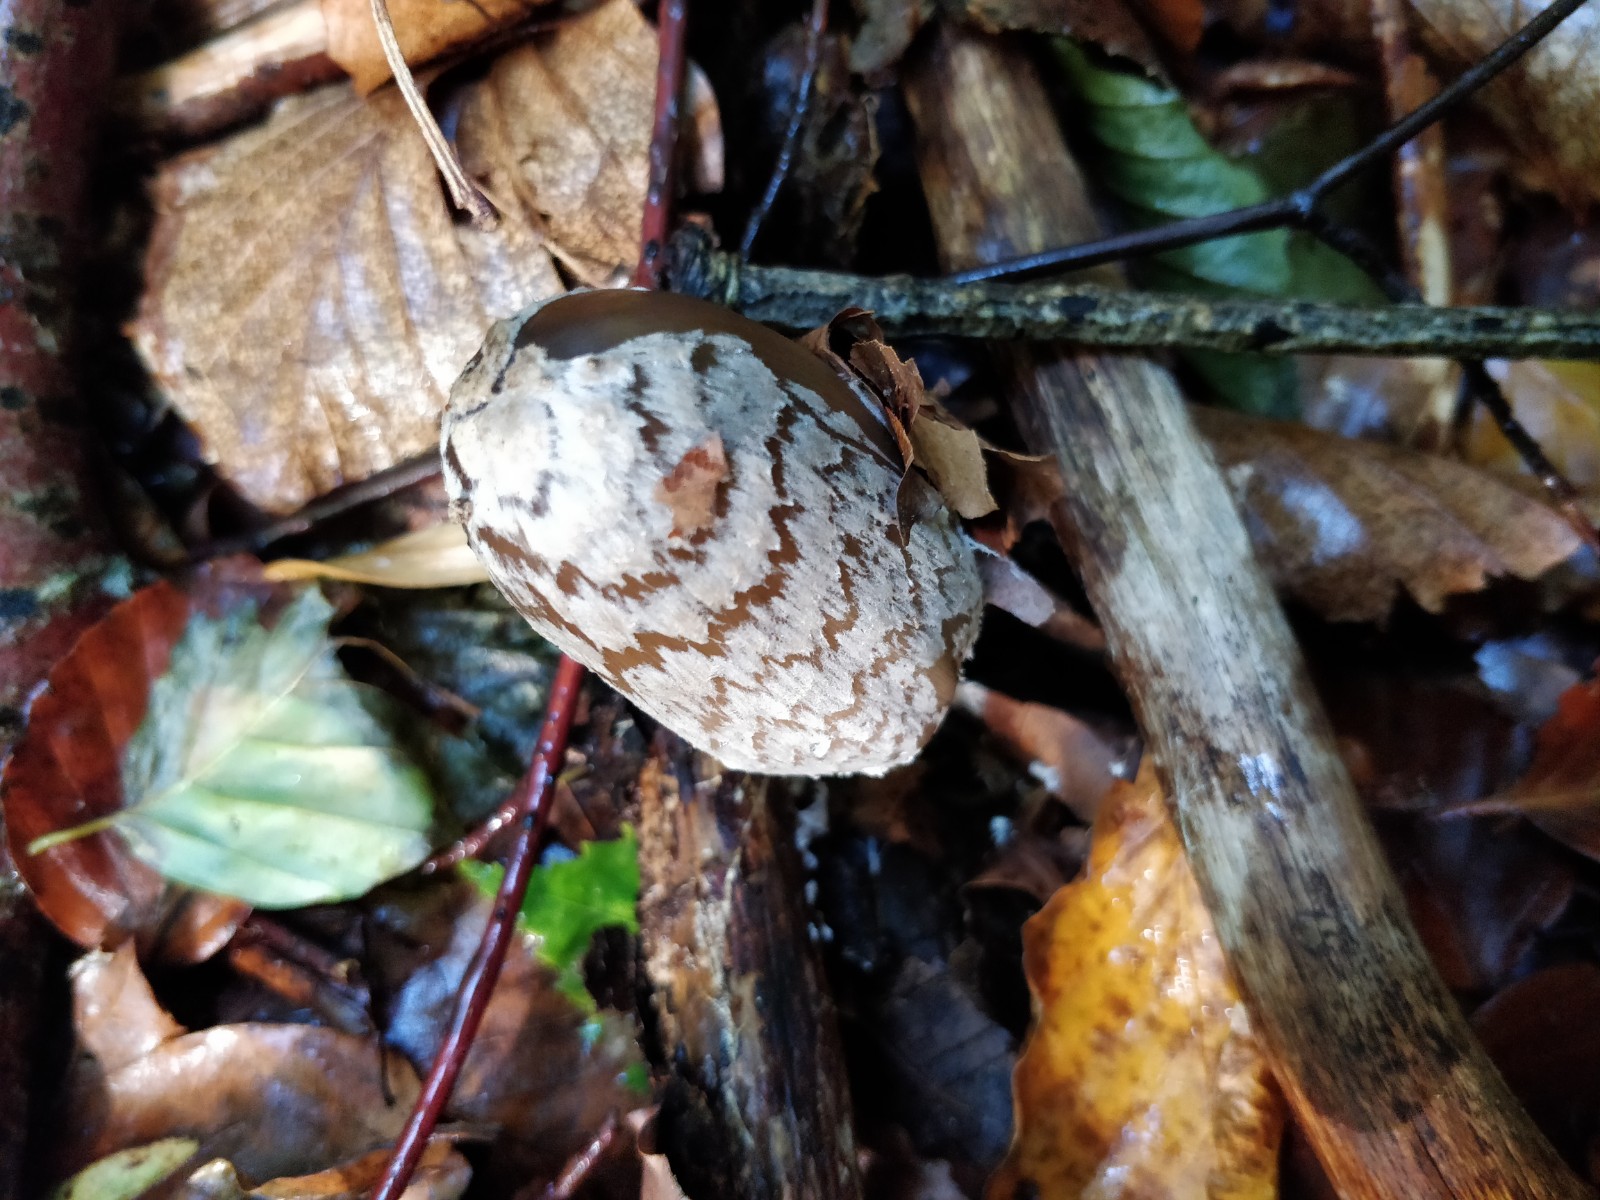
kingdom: Fungi
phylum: Basidiomycota
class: Agaricomycetes
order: Agaricales
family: Psathyrellaceae
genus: Coprinopsis
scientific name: Coprinopsis picacea
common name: skade-blækhat
